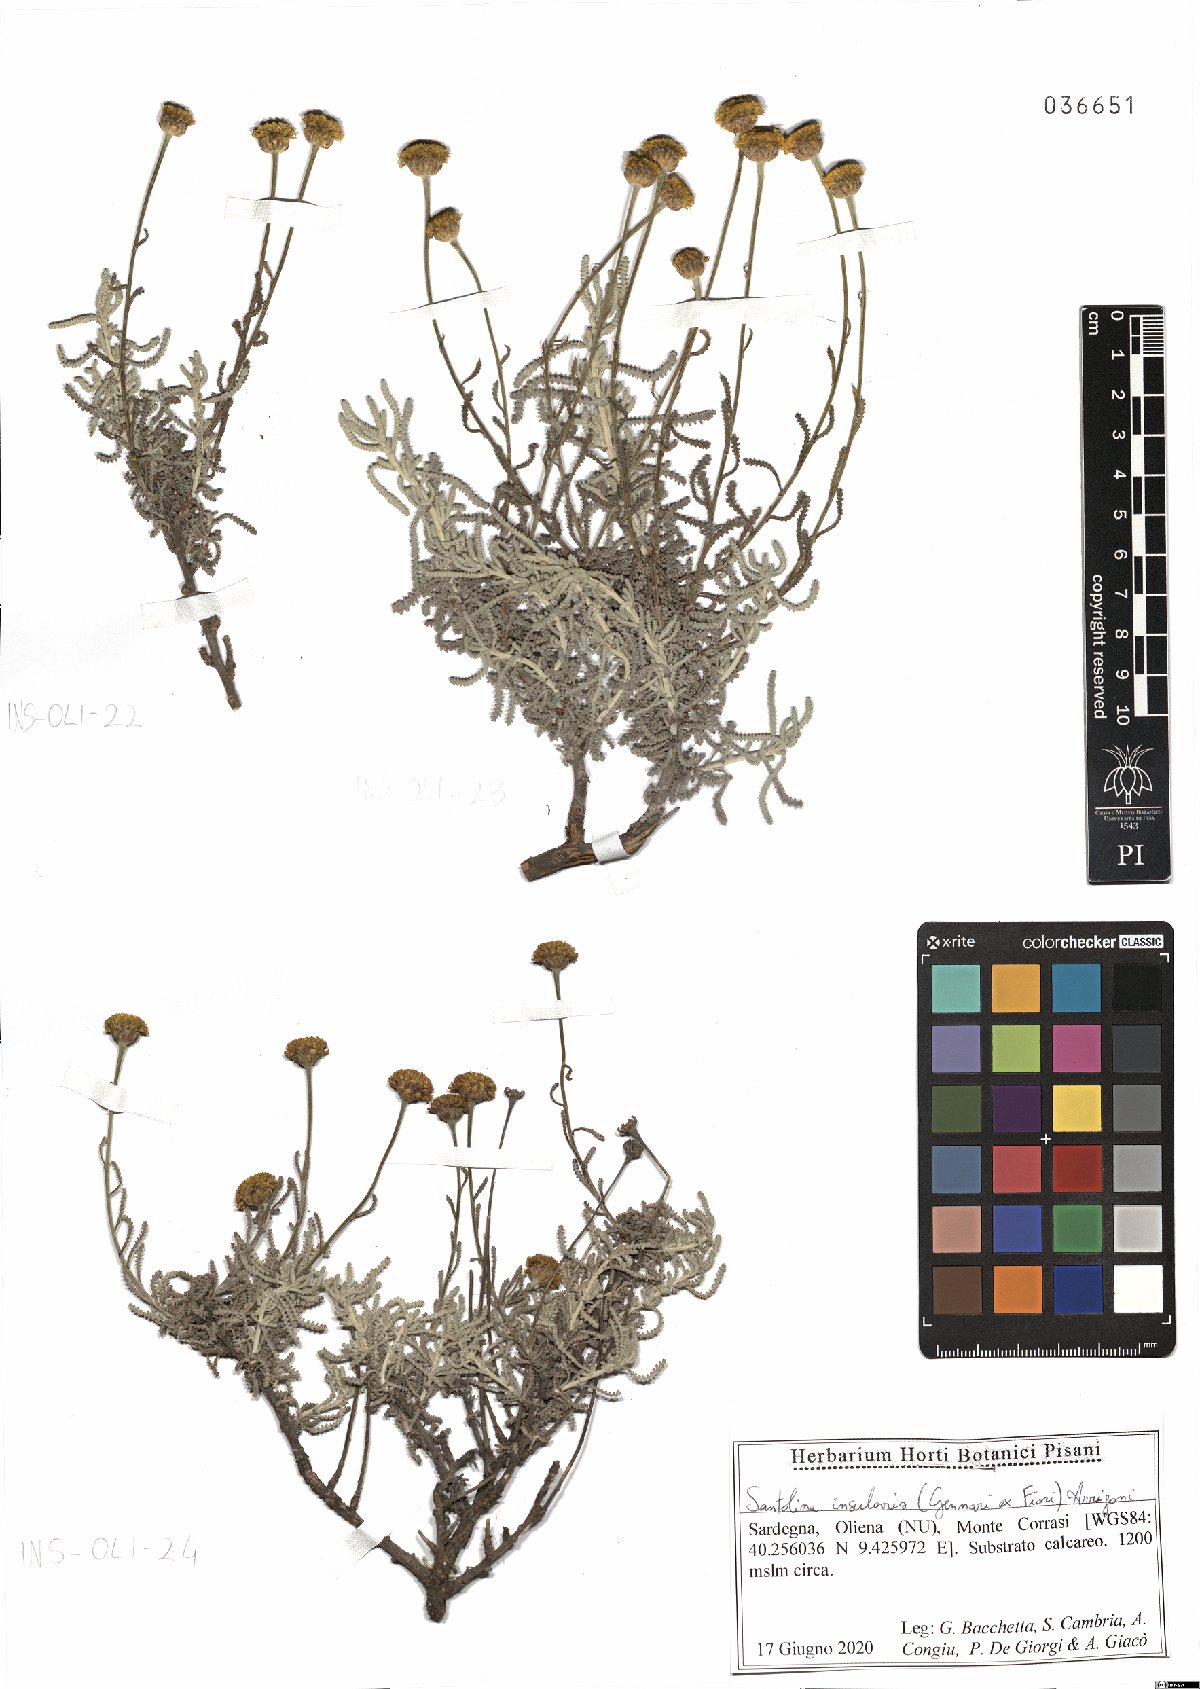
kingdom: Plantae
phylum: Tracheophyta
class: Magnoliopsida
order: Asterales
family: Asteraceae
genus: Santolina
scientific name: Santolina insularis
